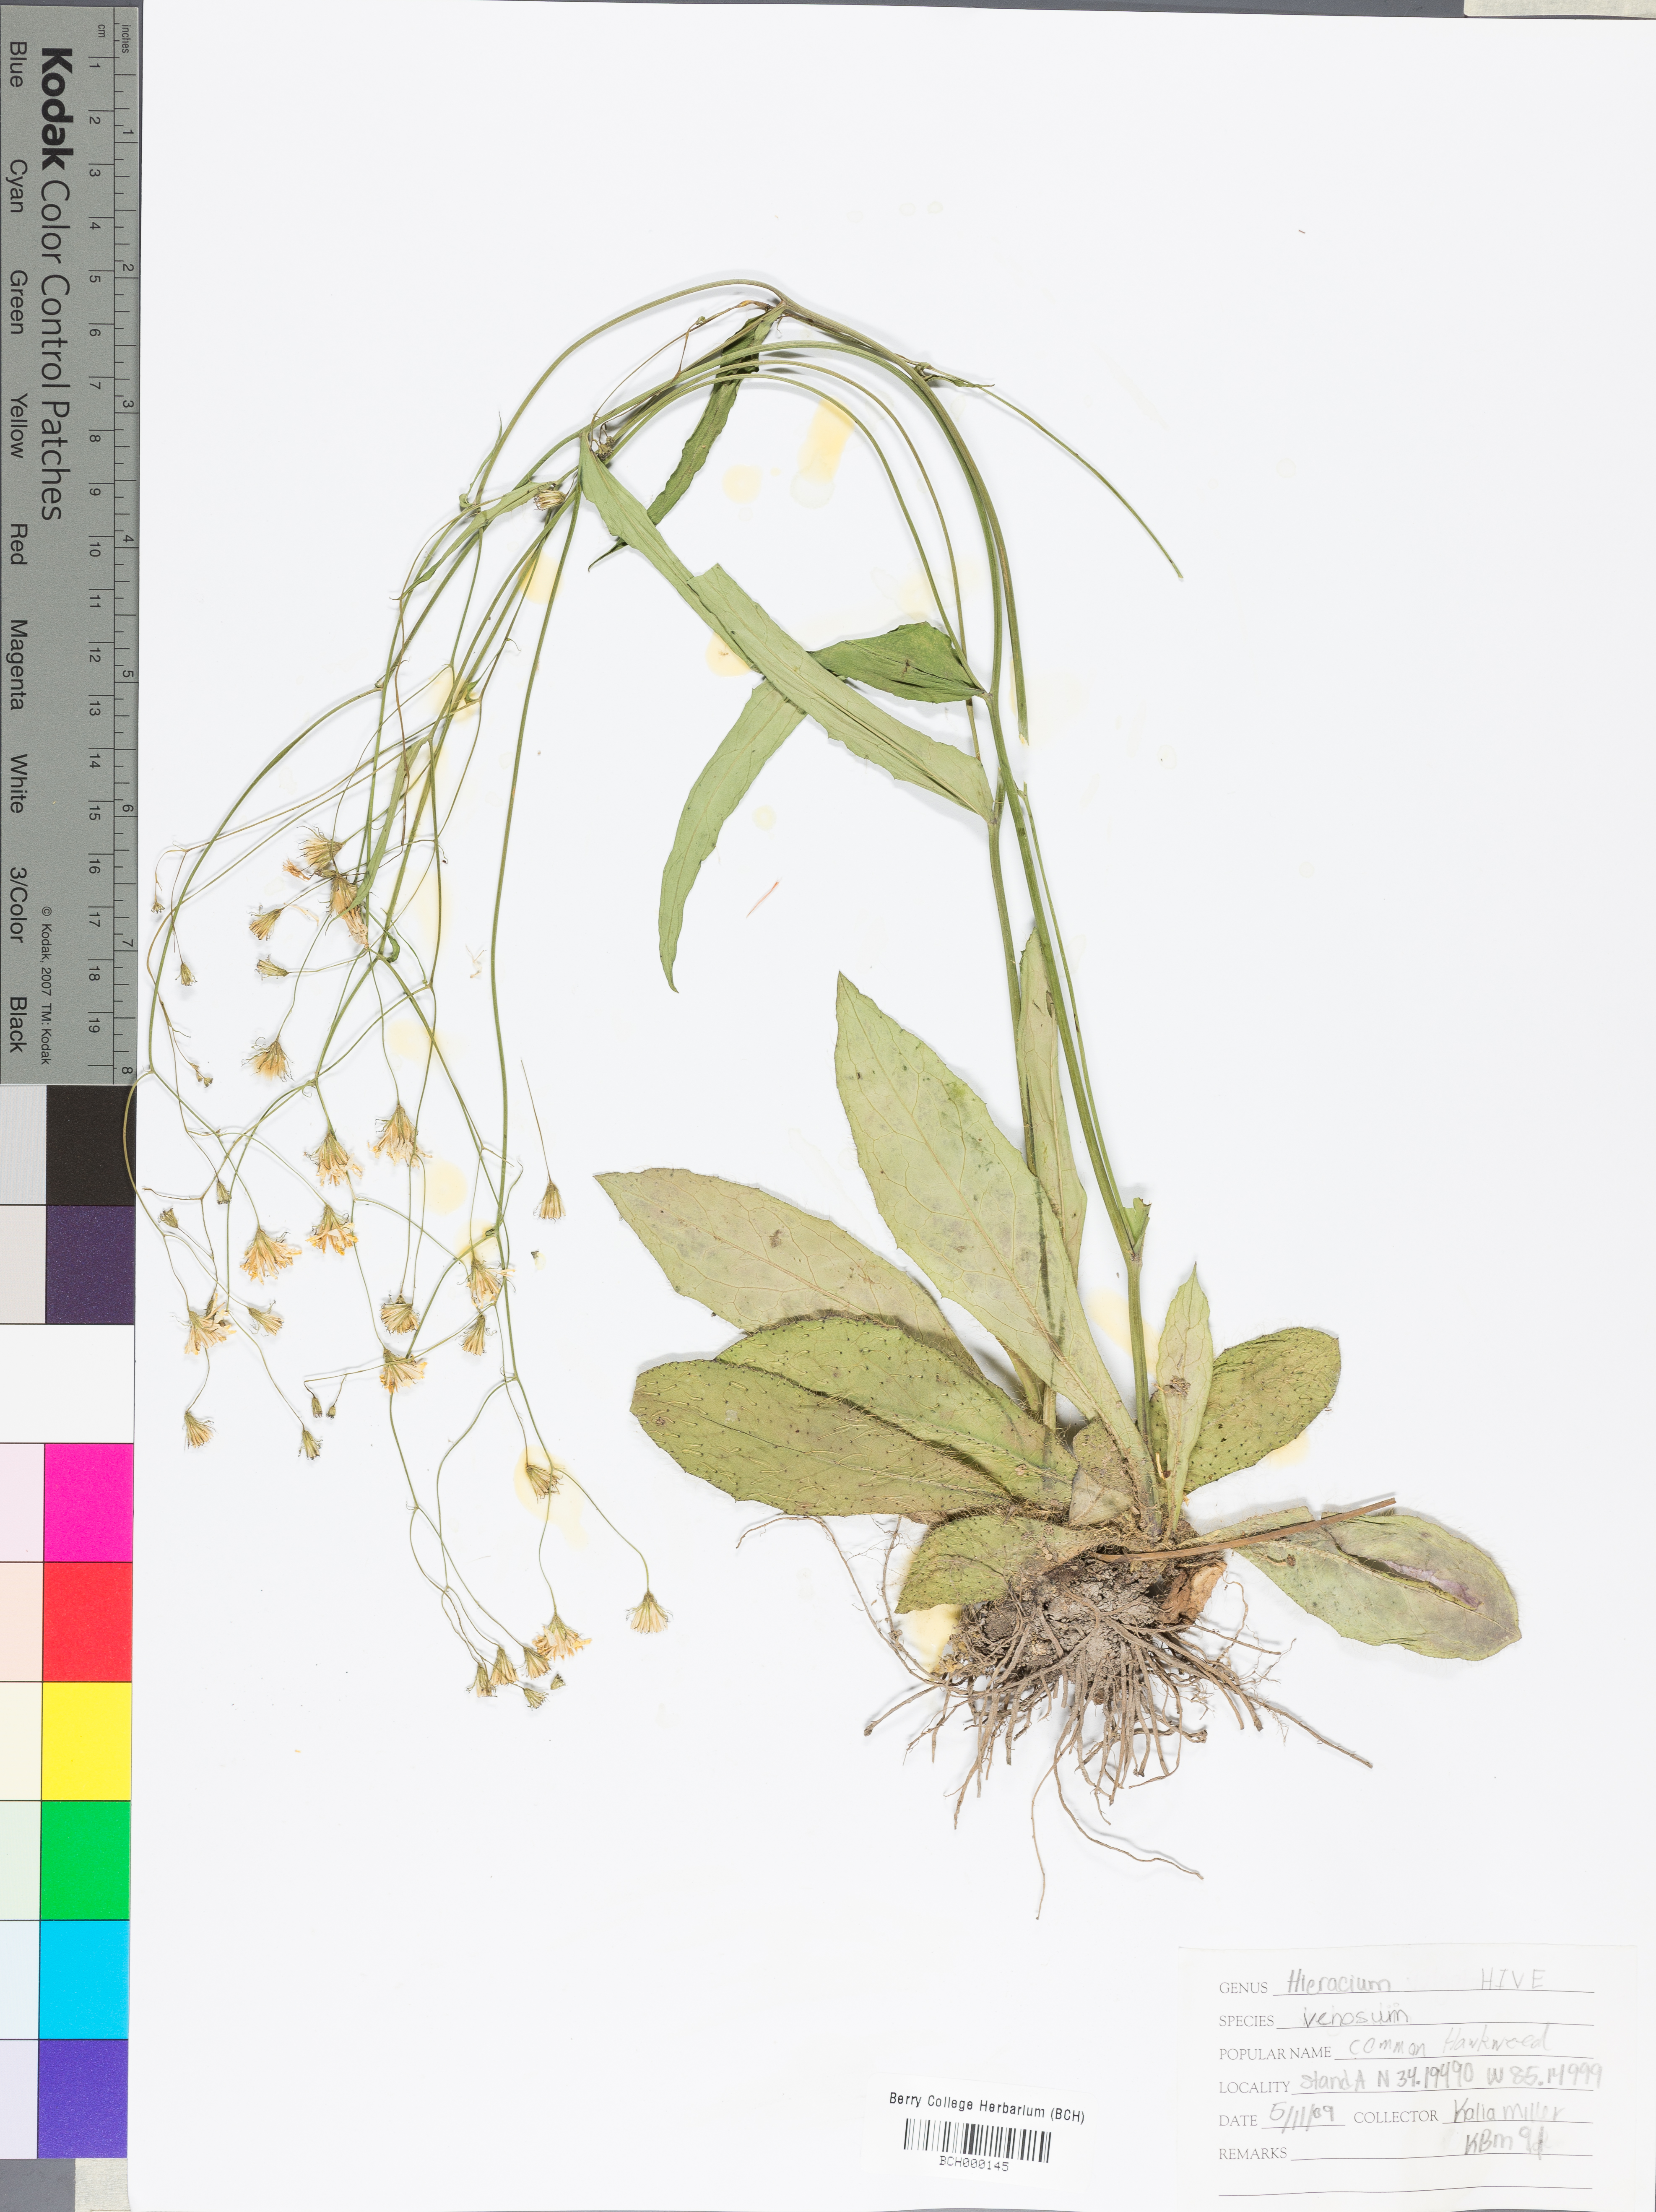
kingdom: Plantae
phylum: Tracheophyta
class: Magnoliopsida
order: Asterales
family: Asteraceae
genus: Hieracium
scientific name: Hieracium venosum
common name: Rattlesnake hawkweed
